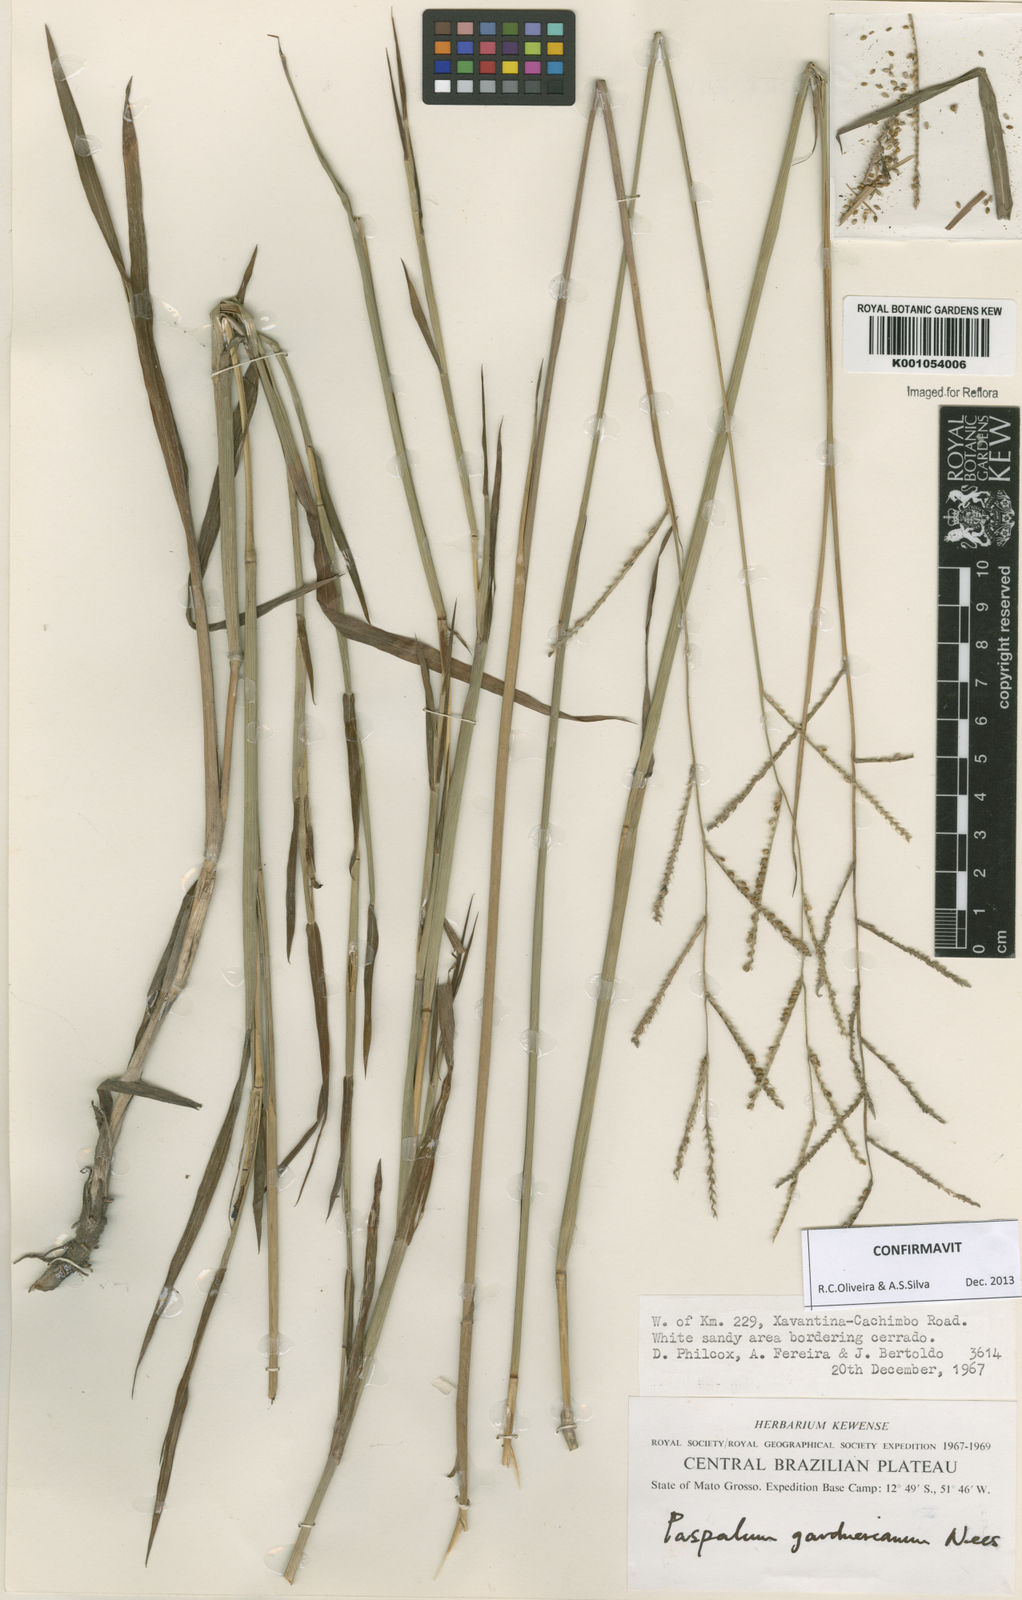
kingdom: Plantae
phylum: Tracheophyta
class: Liliopsida
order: Poales
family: Poaceae
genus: Paspalum
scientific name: Paspalum gardnerianum
